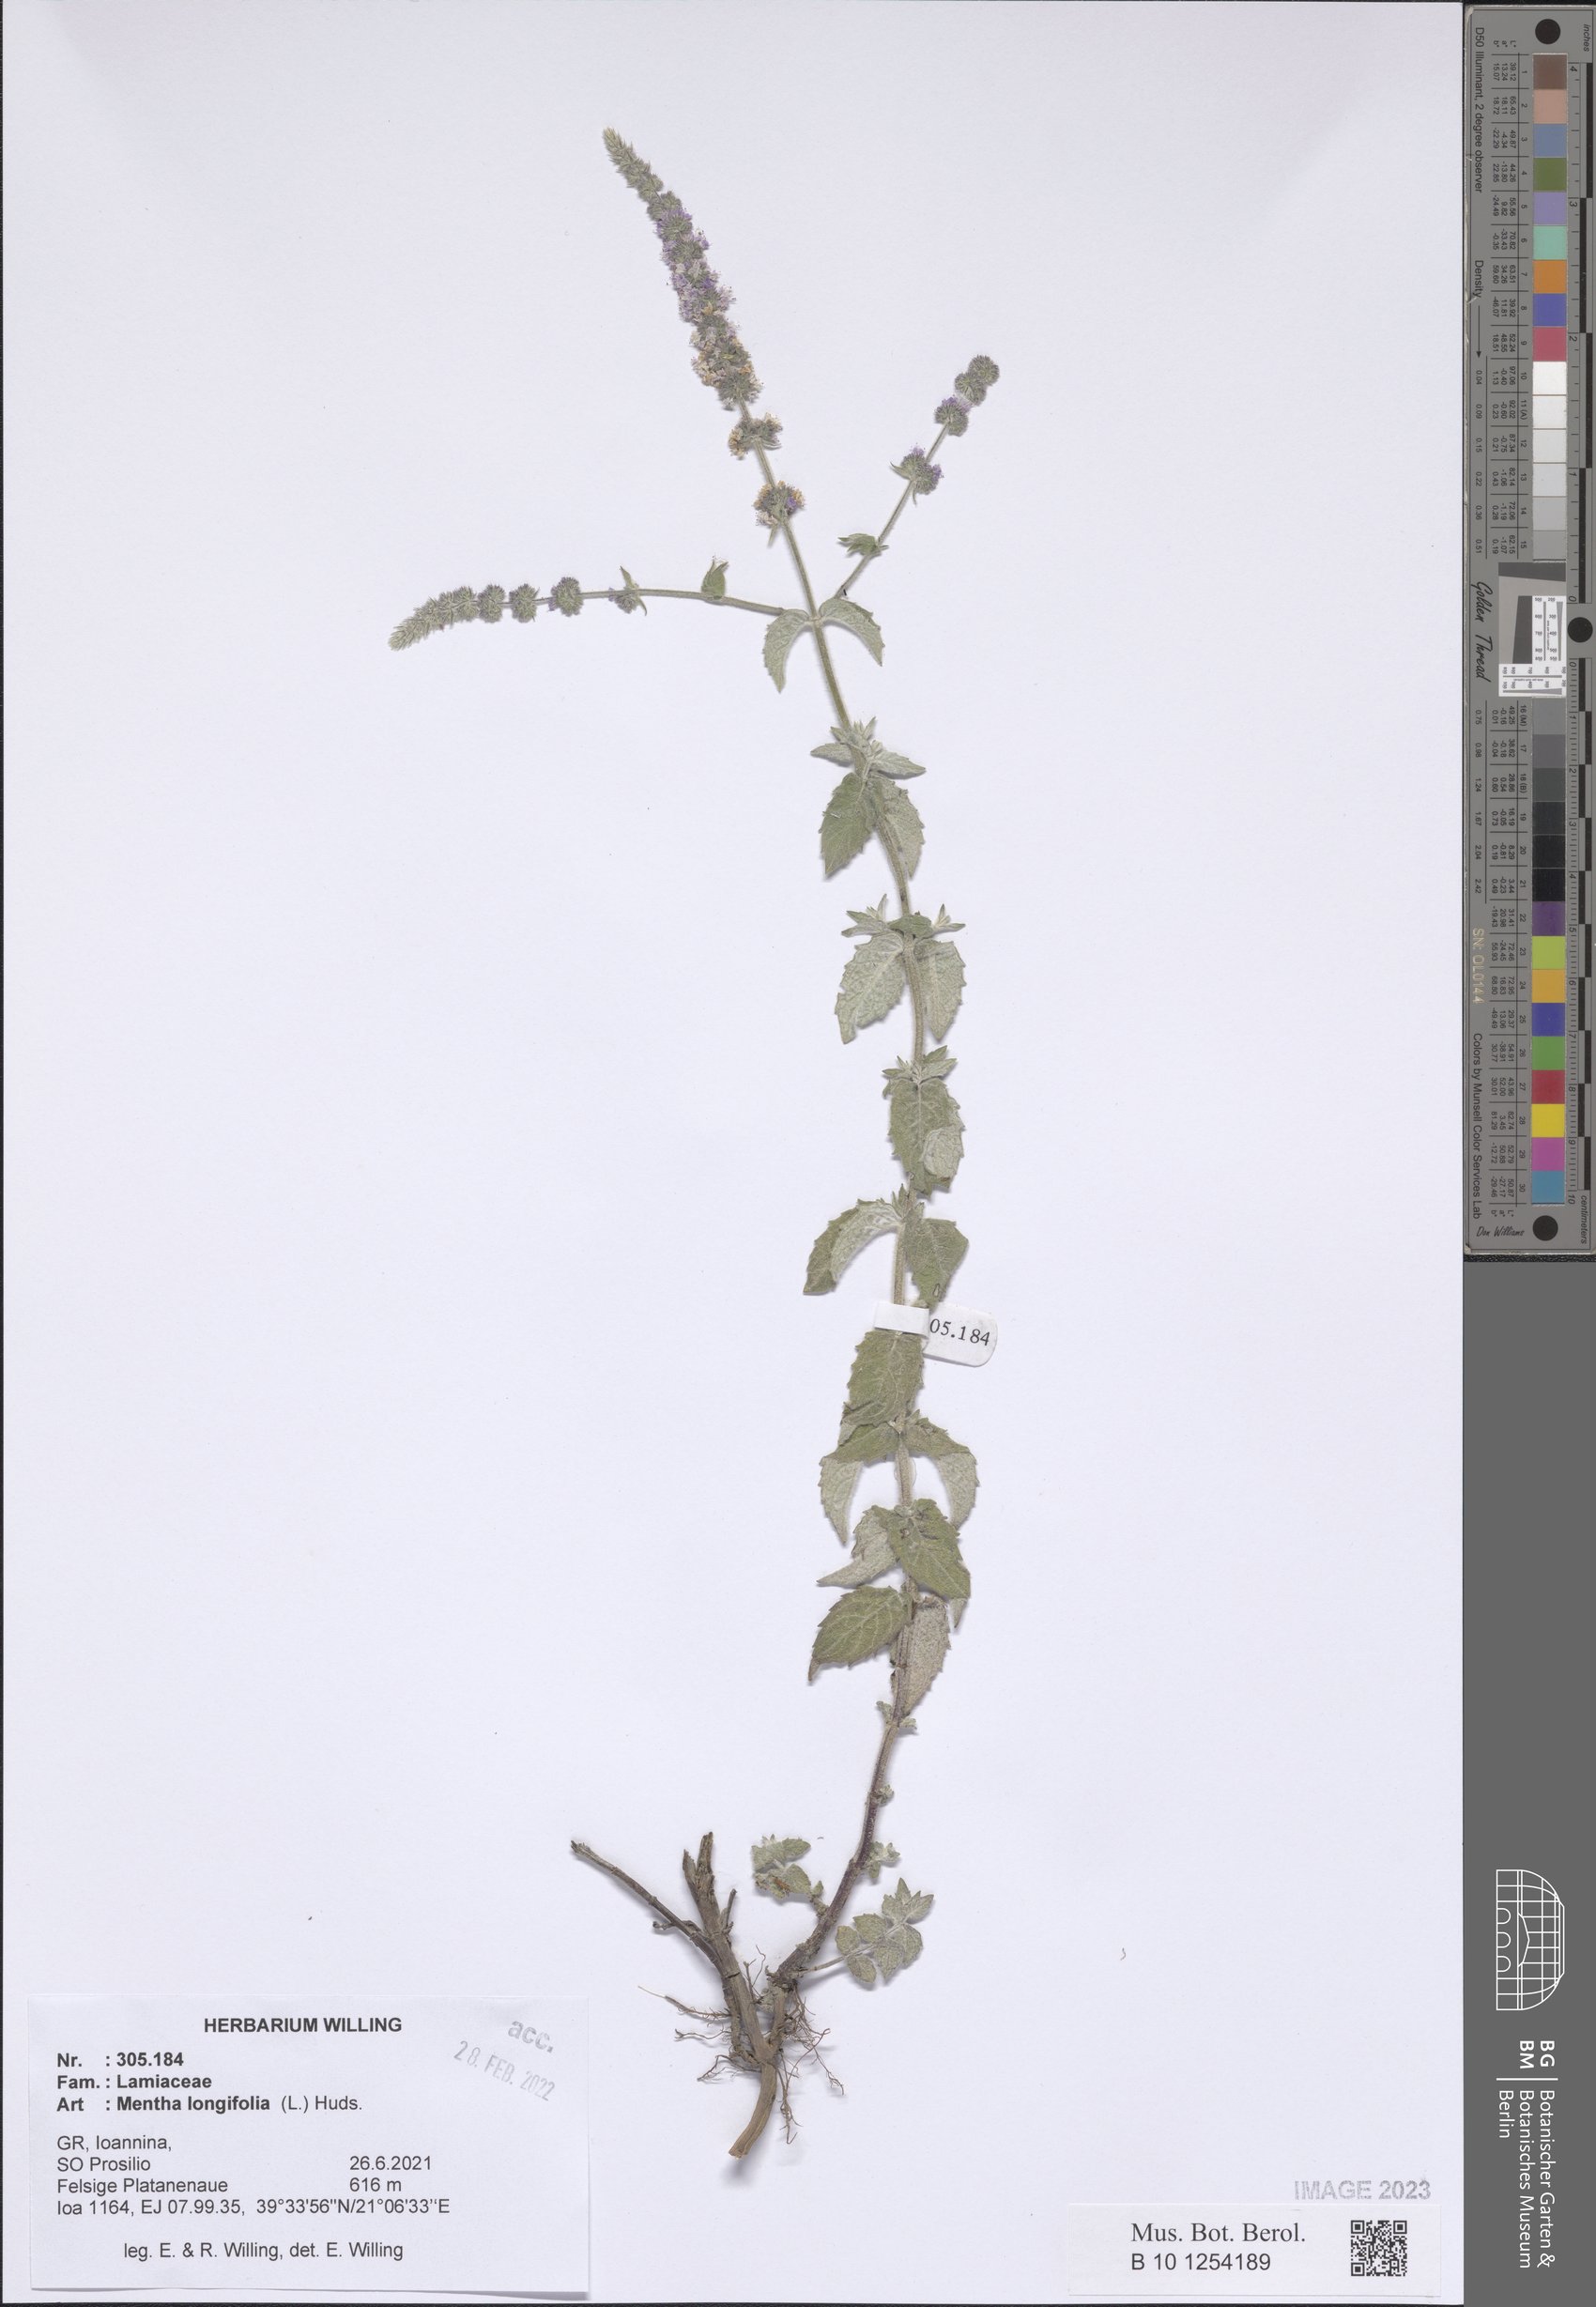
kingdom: Plantae
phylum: Tracheophyta
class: Magnoliopsida
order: Lamiales
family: Lamiaceae
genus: Mentha
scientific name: Mentha longifolia
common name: Horse mint
